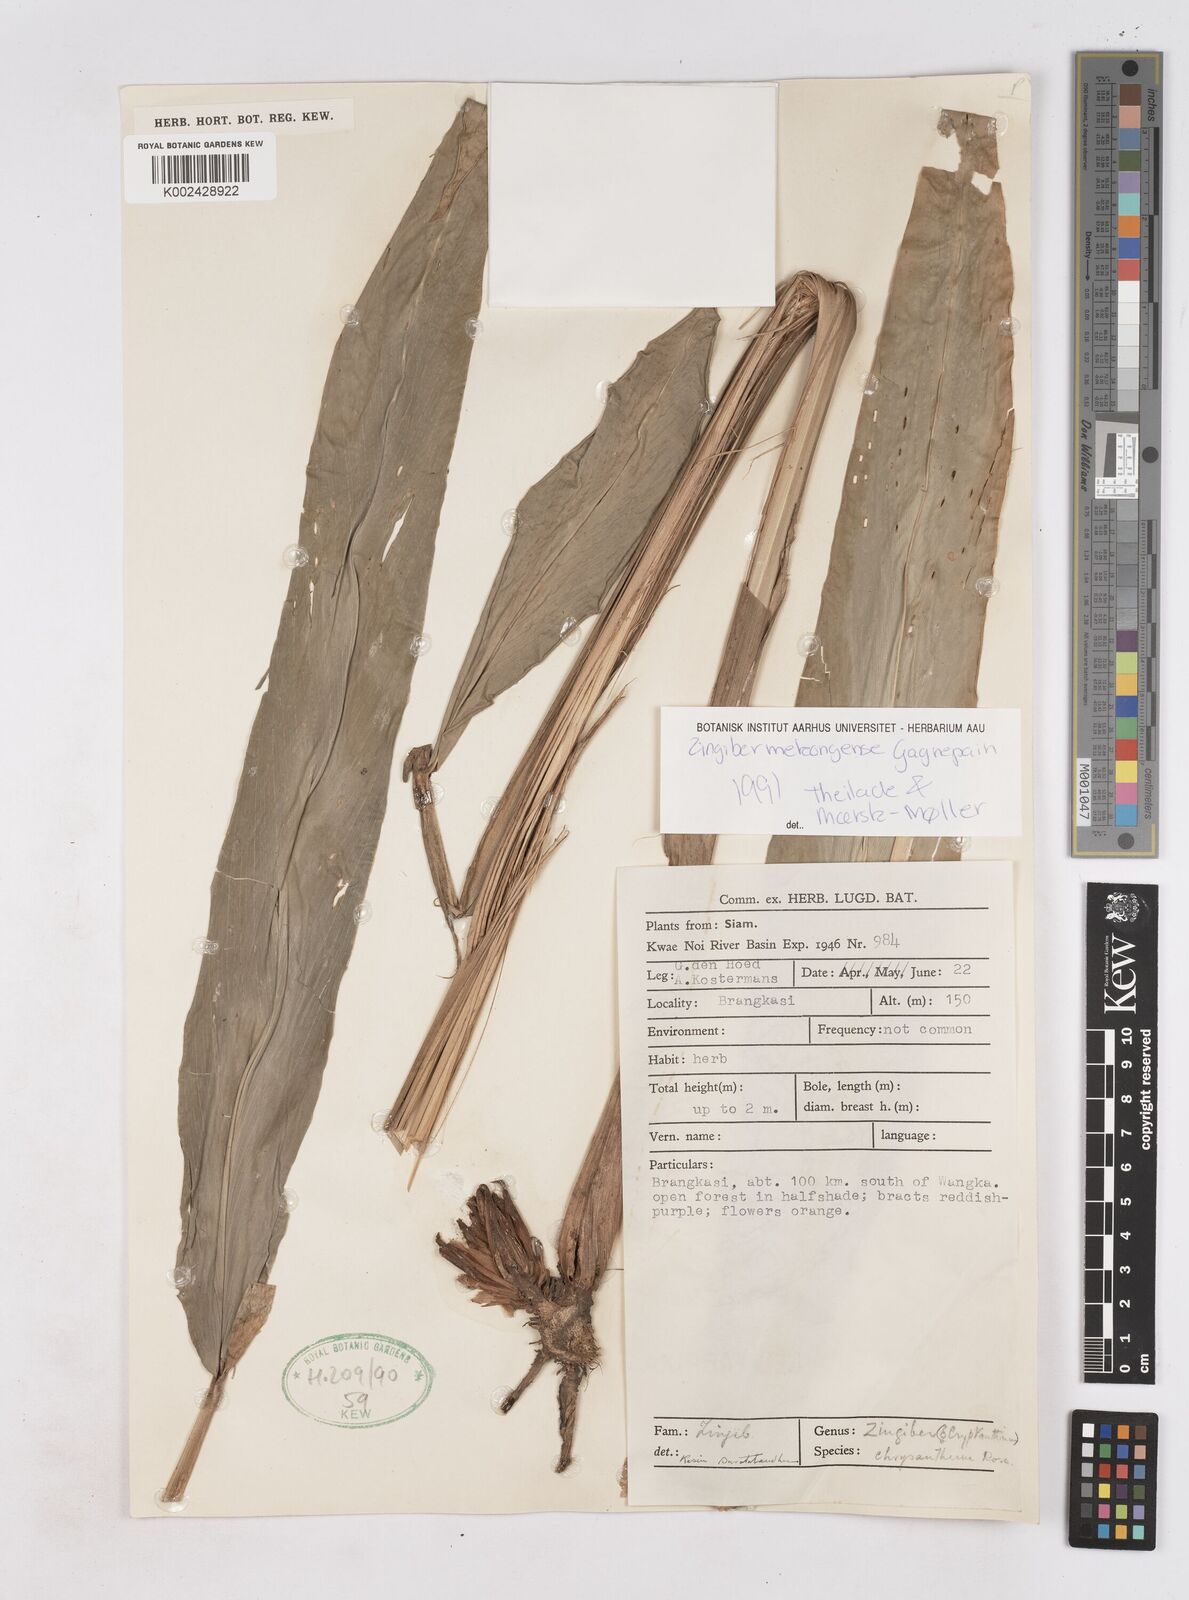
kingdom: Plantae
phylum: Tracheophyta
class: Liliopsida
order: Zingiberales
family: Zingiberaceae
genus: Zingiber
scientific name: Zingiber mekongense
